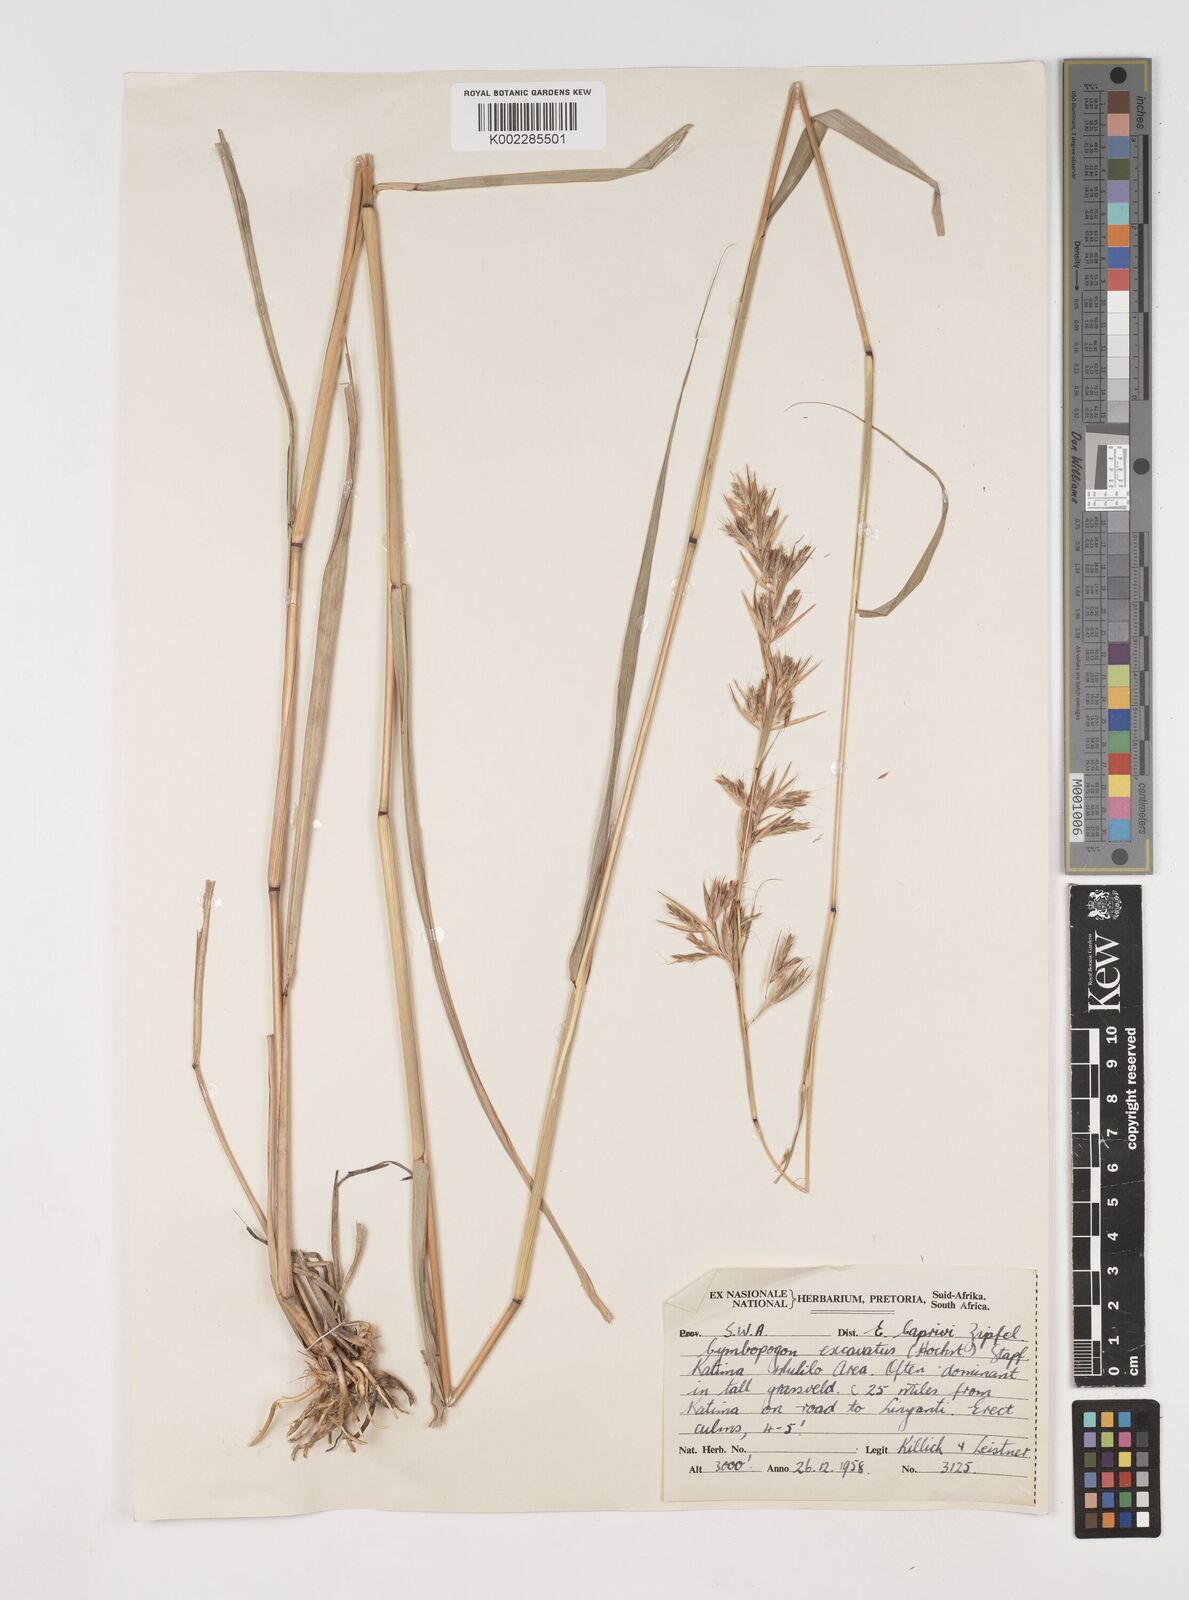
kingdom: Plantae
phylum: Tracheophyta
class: Liliopsida
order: Poales
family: Poaceae
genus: Cymbopogon
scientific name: Cymbopogon caesius
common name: Kachi grass
